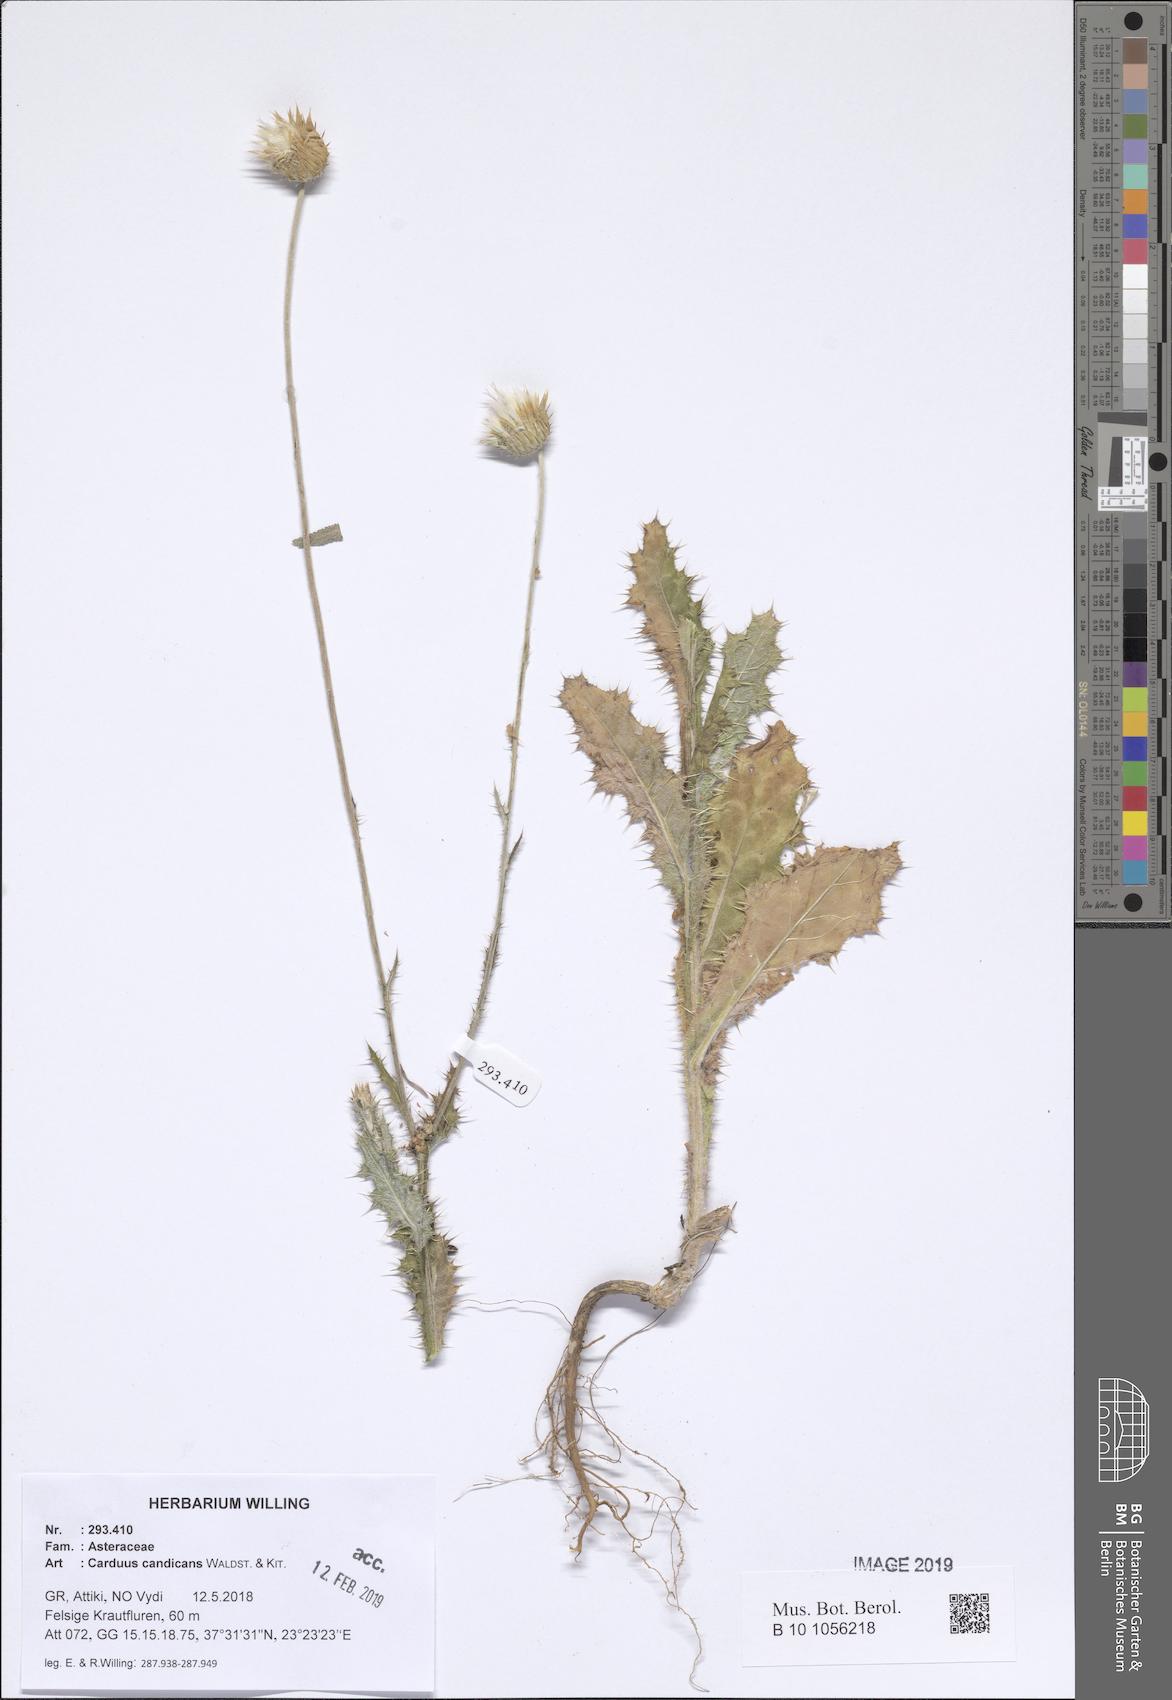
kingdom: Plantae
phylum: Tracheophyta
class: Magnoliopsida
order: Asterales
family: Asteraceae
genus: Carduus
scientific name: Carduus candicans
